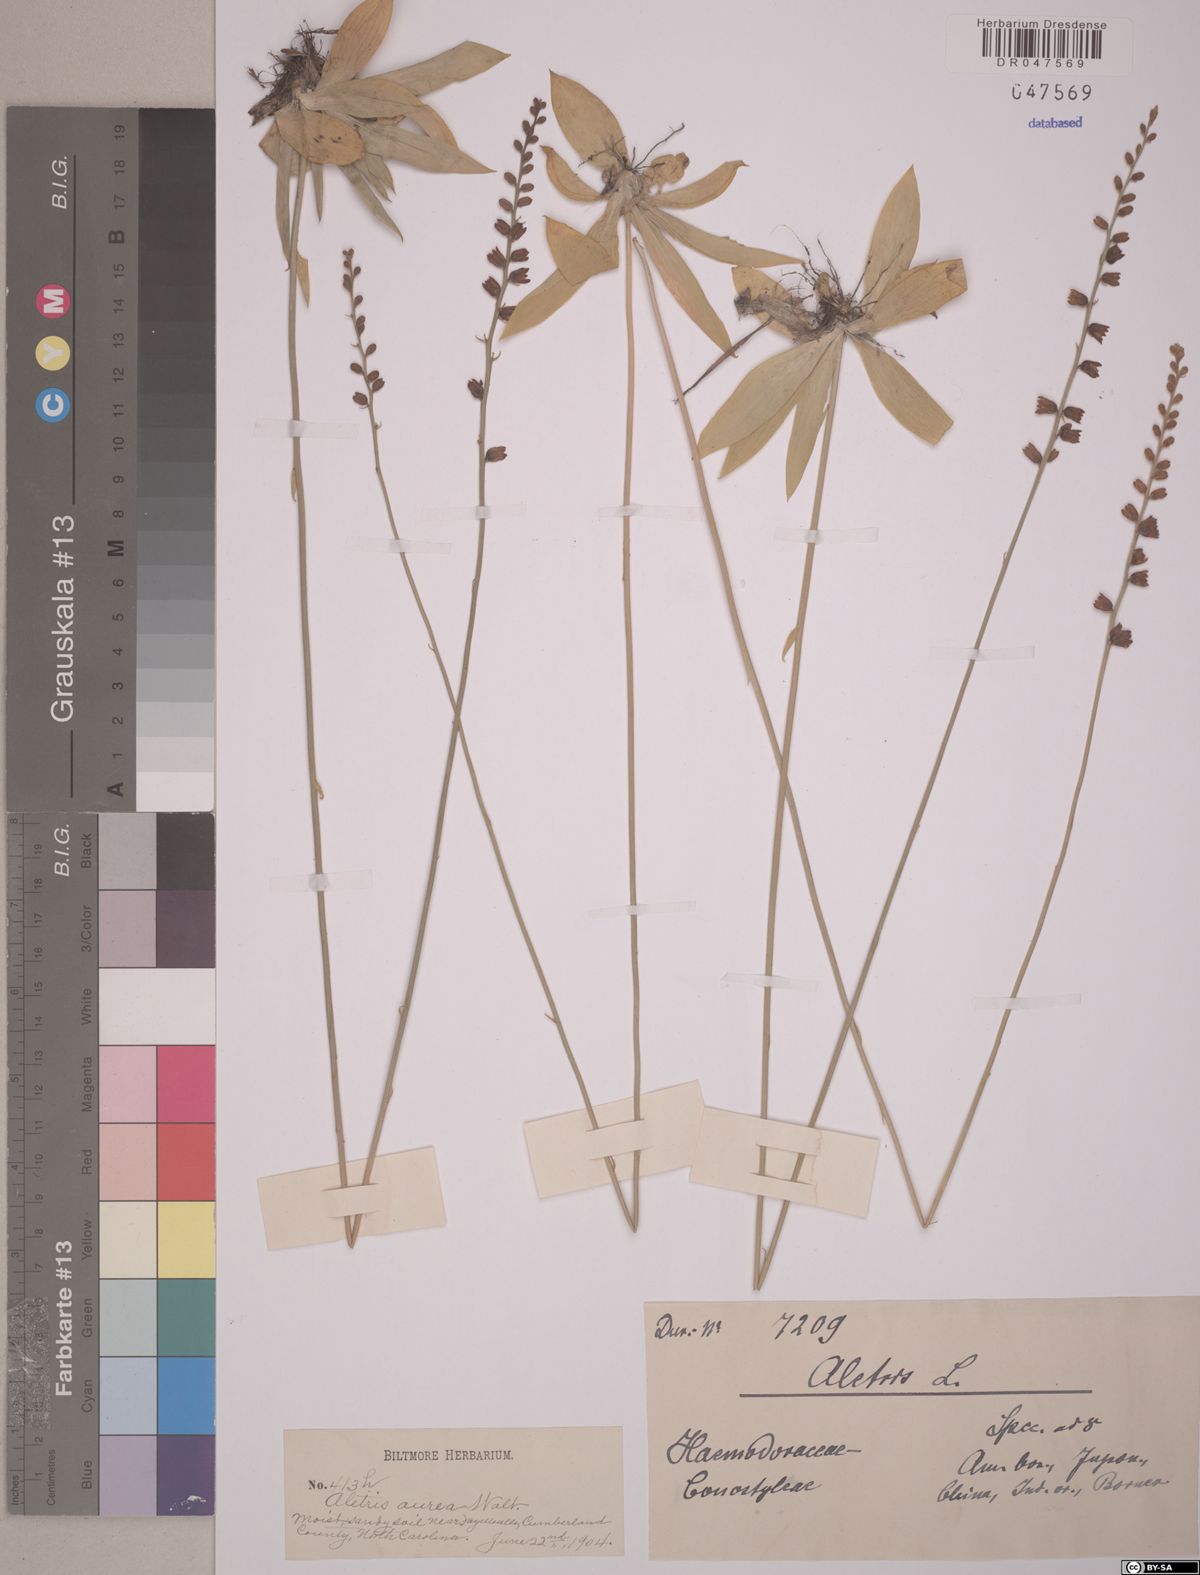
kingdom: Plantae
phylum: Tracheophyta
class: Liliopsida
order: Dioscoreales
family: Nartheciaceae
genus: Aletris
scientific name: Aletris aurea
